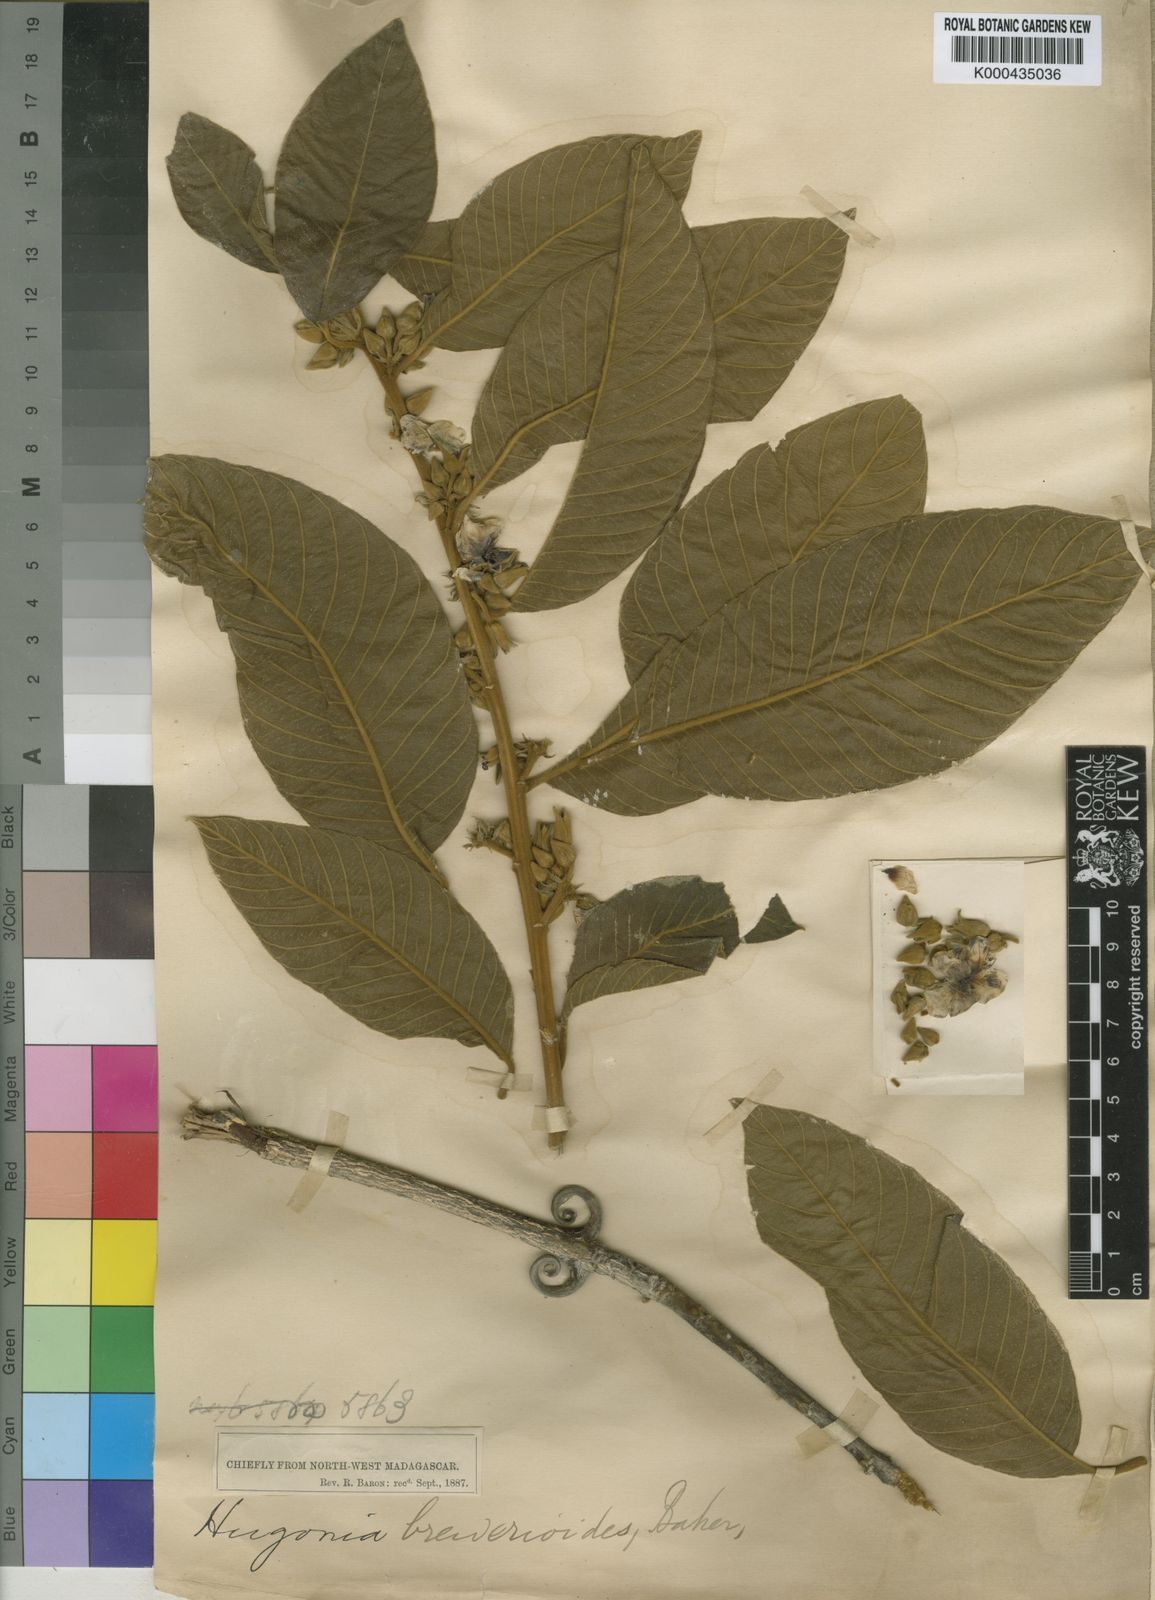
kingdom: Plantae
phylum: Tracheophyta
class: Magnoliopsida
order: Malpighiales
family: Linaceae
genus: Hugonia
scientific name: Hugonia brewerioides
